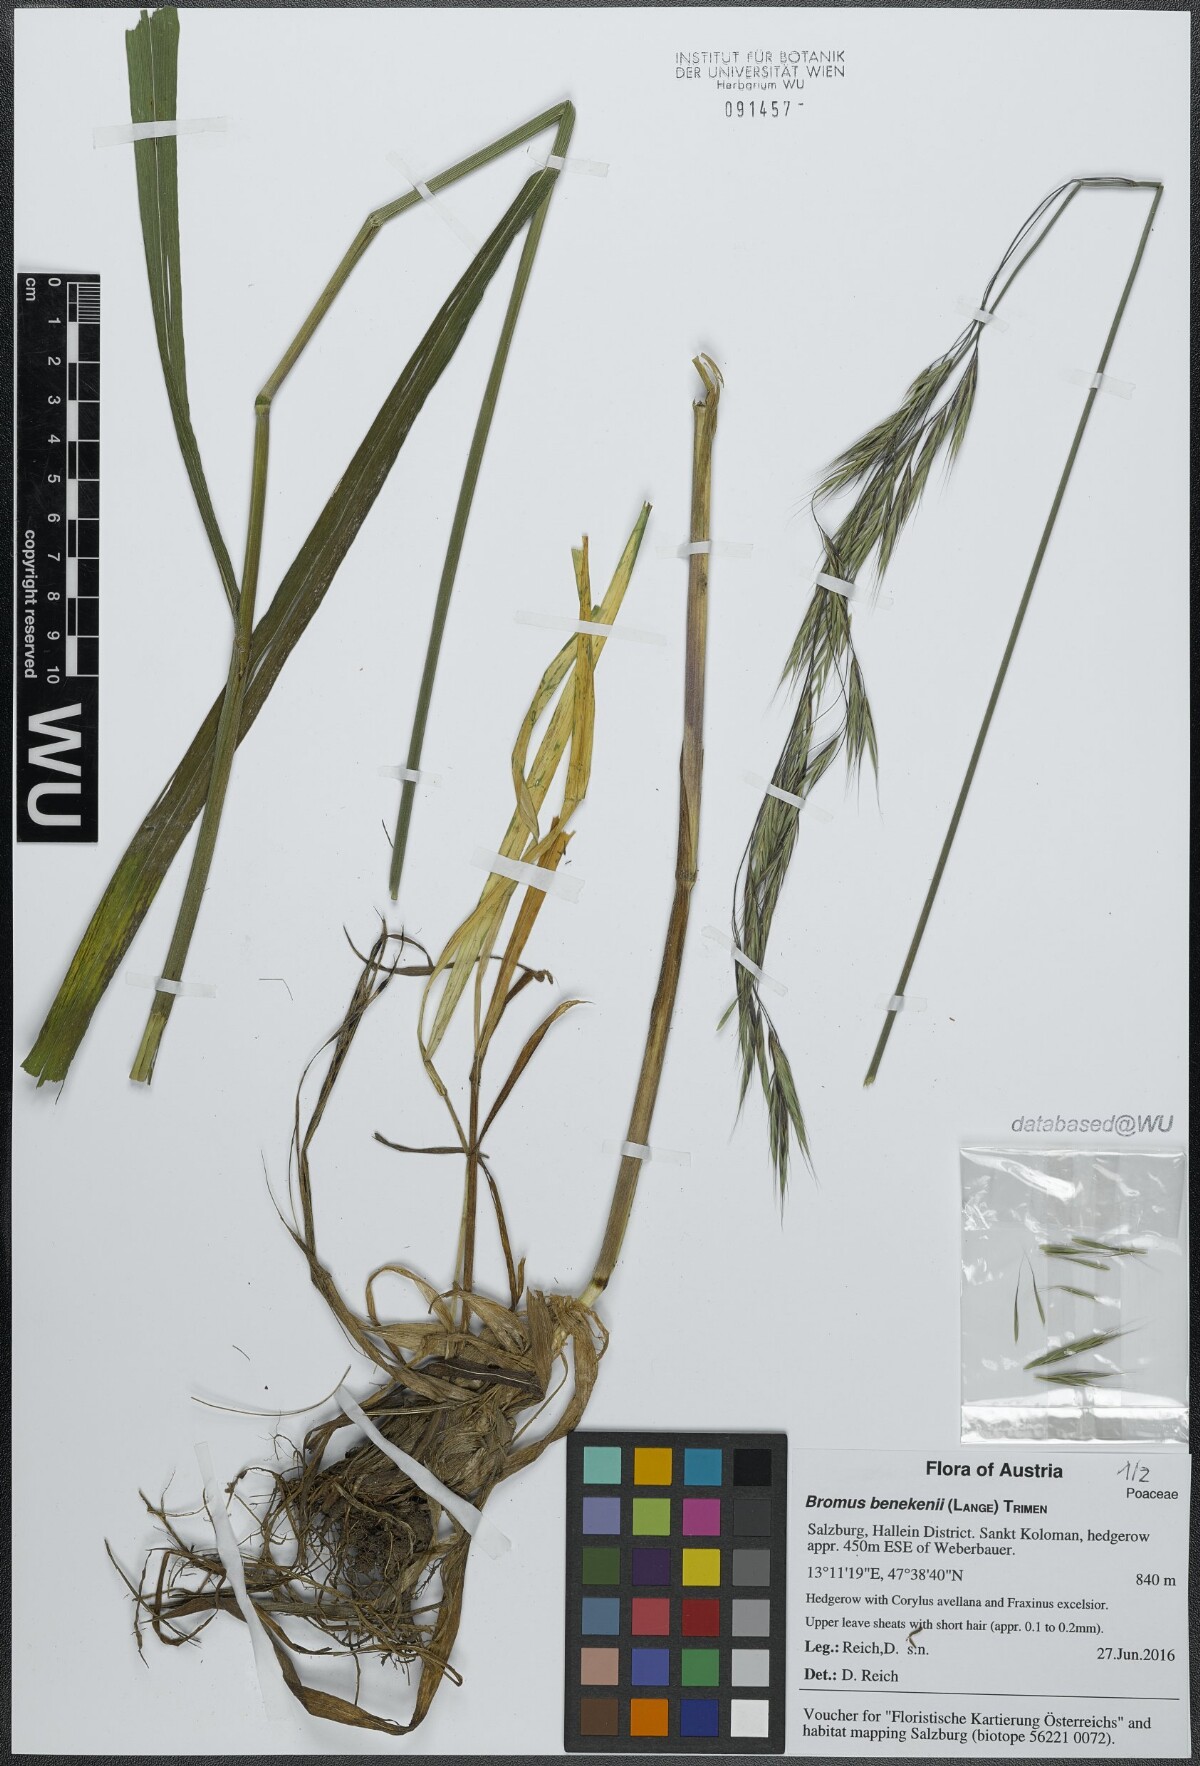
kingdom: Plantae
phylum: Tracheophyta
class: Liliopsida
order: Poales
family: Poaceae
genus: Bromus
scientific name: Bromus benekenii
